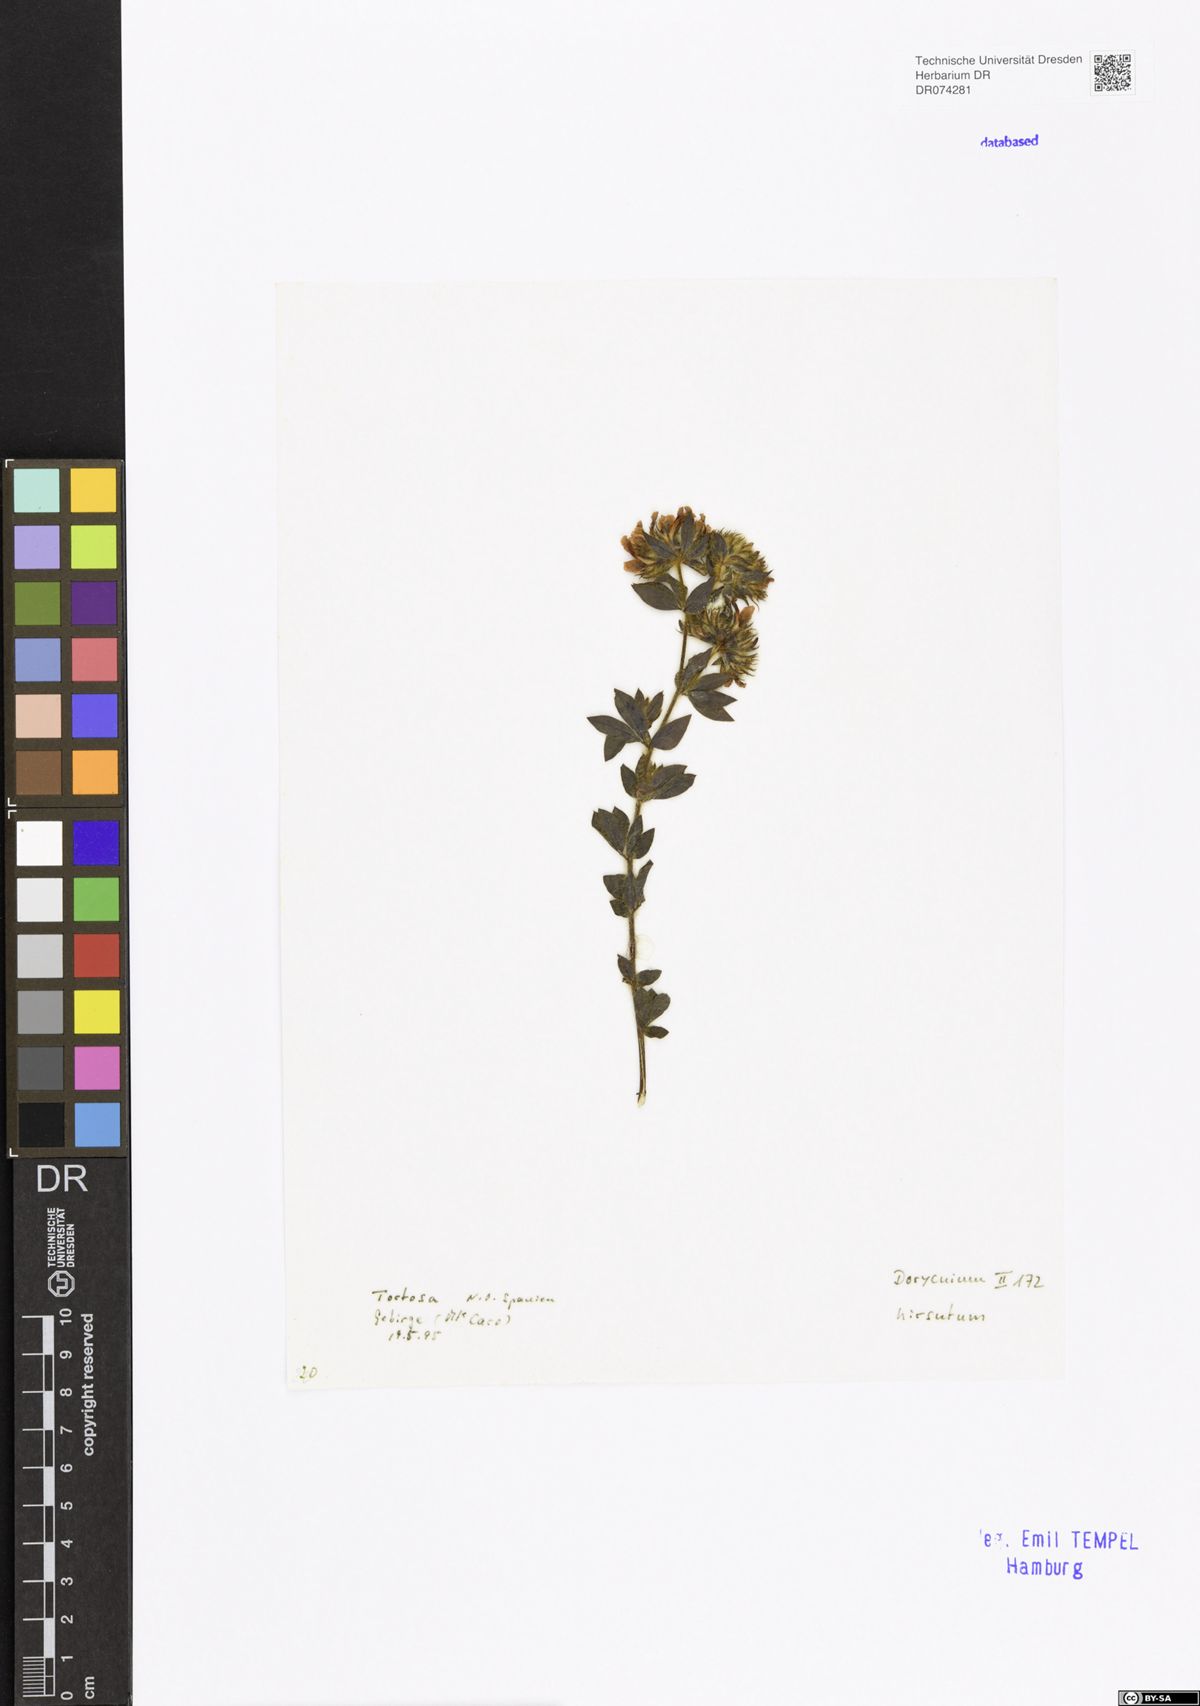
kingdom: Plantae
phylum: Tracheophyta
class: Magnoliopsida
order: Fabales
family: Fabaceae
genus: Lotus
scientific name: Lotus hirsutus
